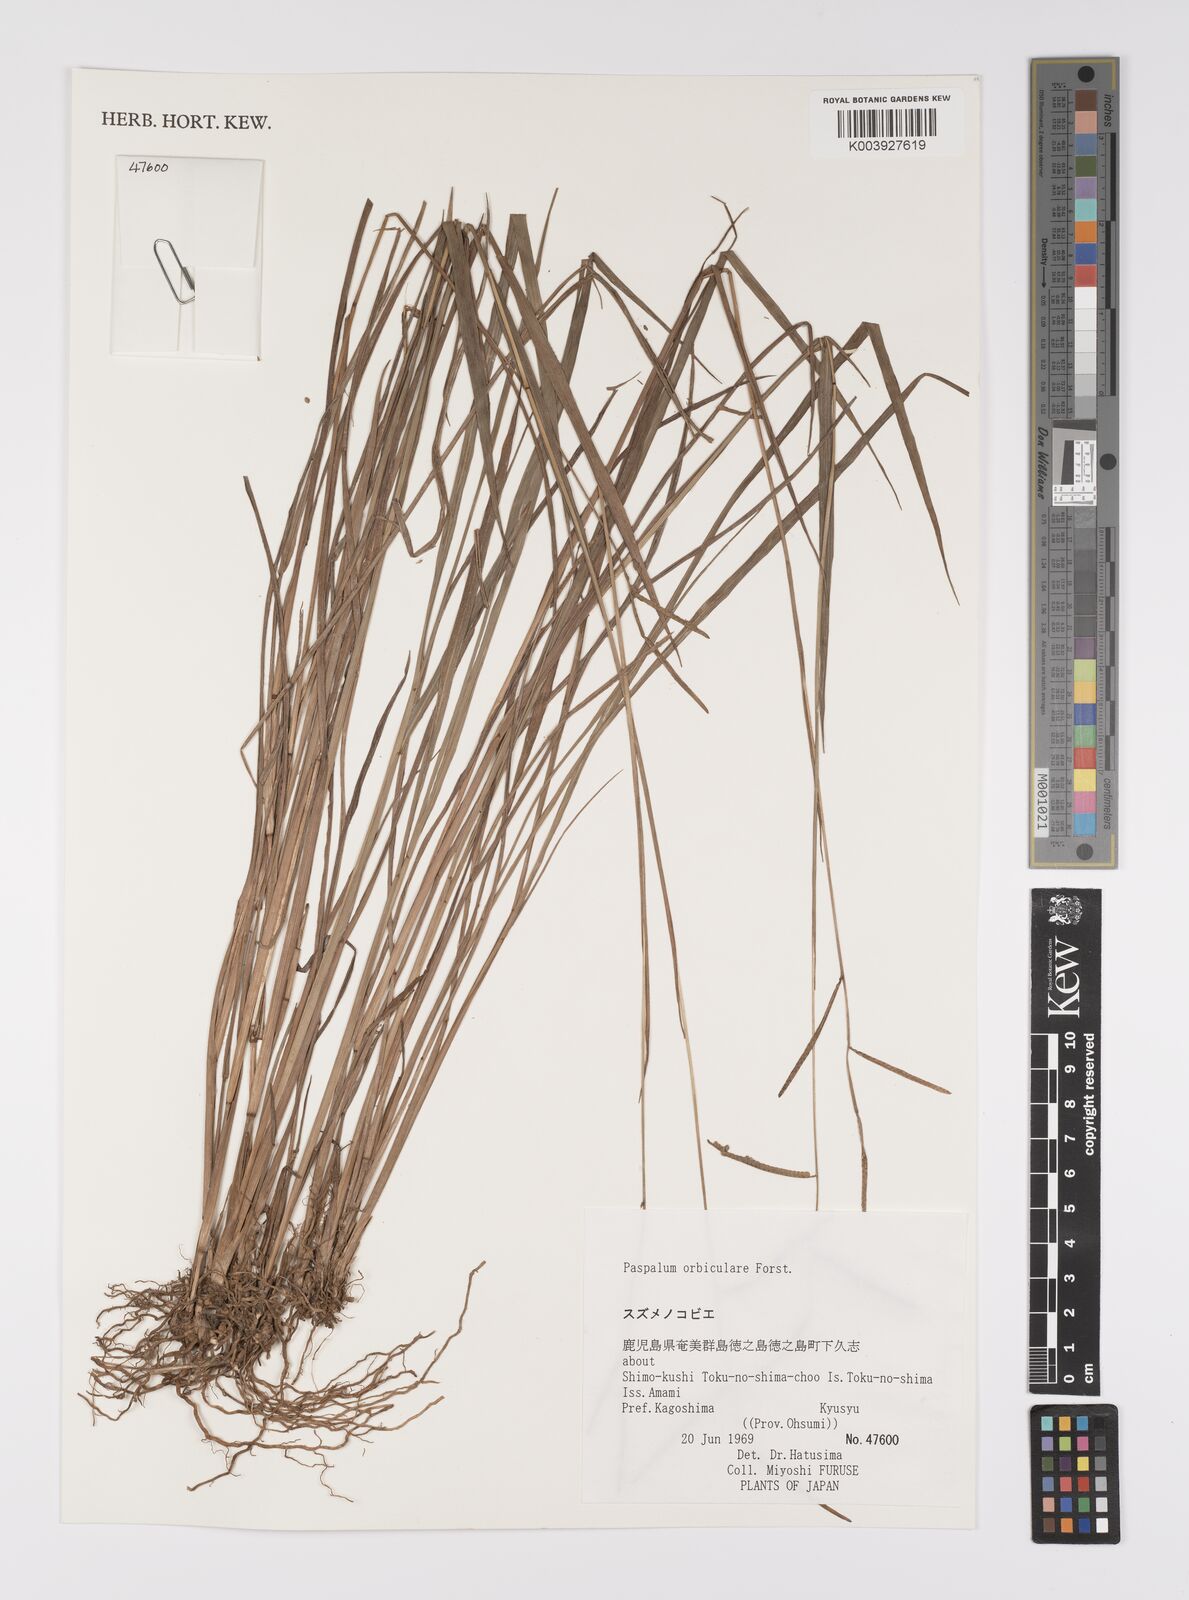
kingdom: Plantae
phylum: Tracheophyta
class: Liliopsida
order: Poales
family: Poaceae
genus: Paspalum
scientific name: Paspalum scrobiculatum
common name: Kodo millet
